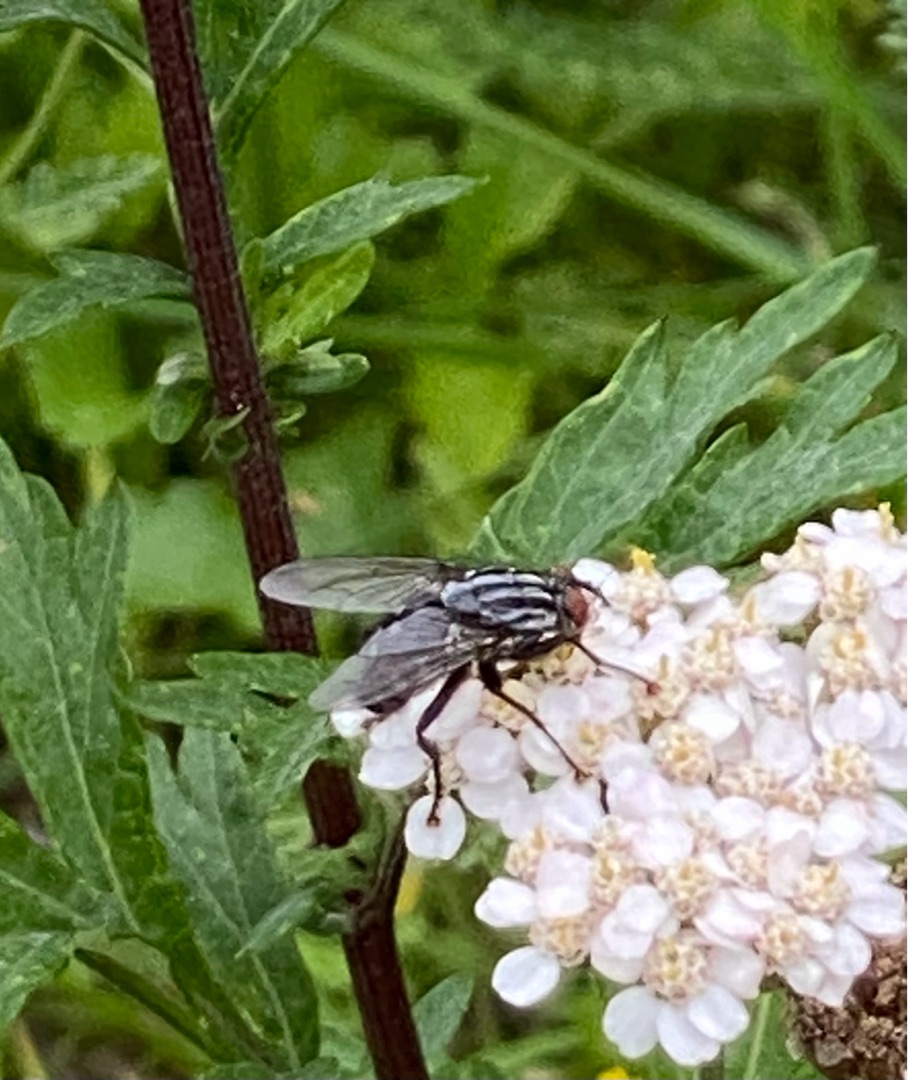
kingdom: Animalia
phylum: Arthropoda
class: Insecta
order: Diptera
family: Sarcophagidae
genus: Sarcophaga
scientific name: Sarcophaga
